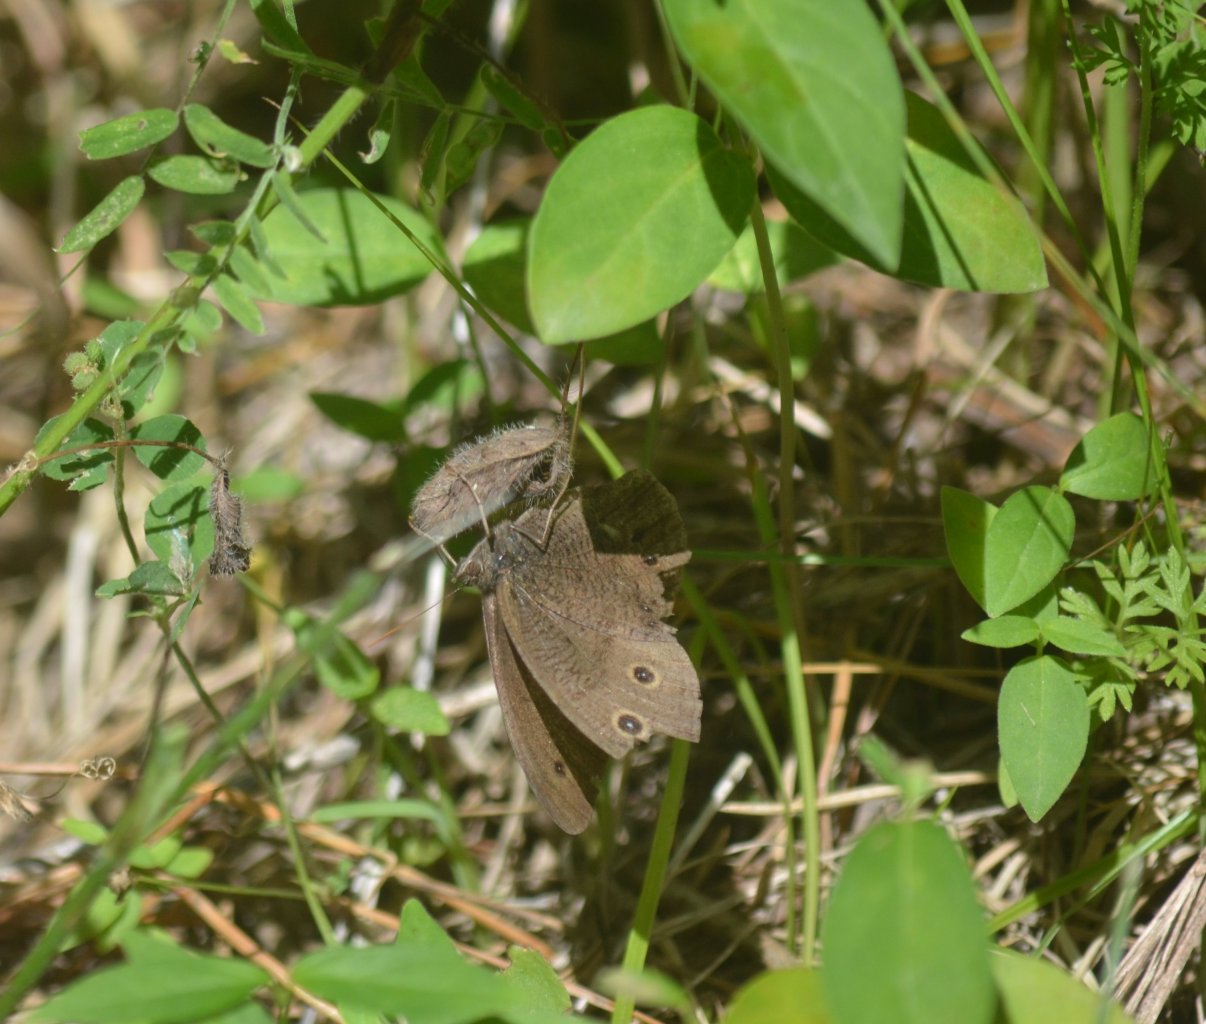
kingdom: Animalia
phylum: Arthropoda
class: Insecta
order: Lepidoptera
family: Nymphalidae
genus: Cercyonis
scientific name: Cercyonis pegala
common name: Common Wood-Nymph
